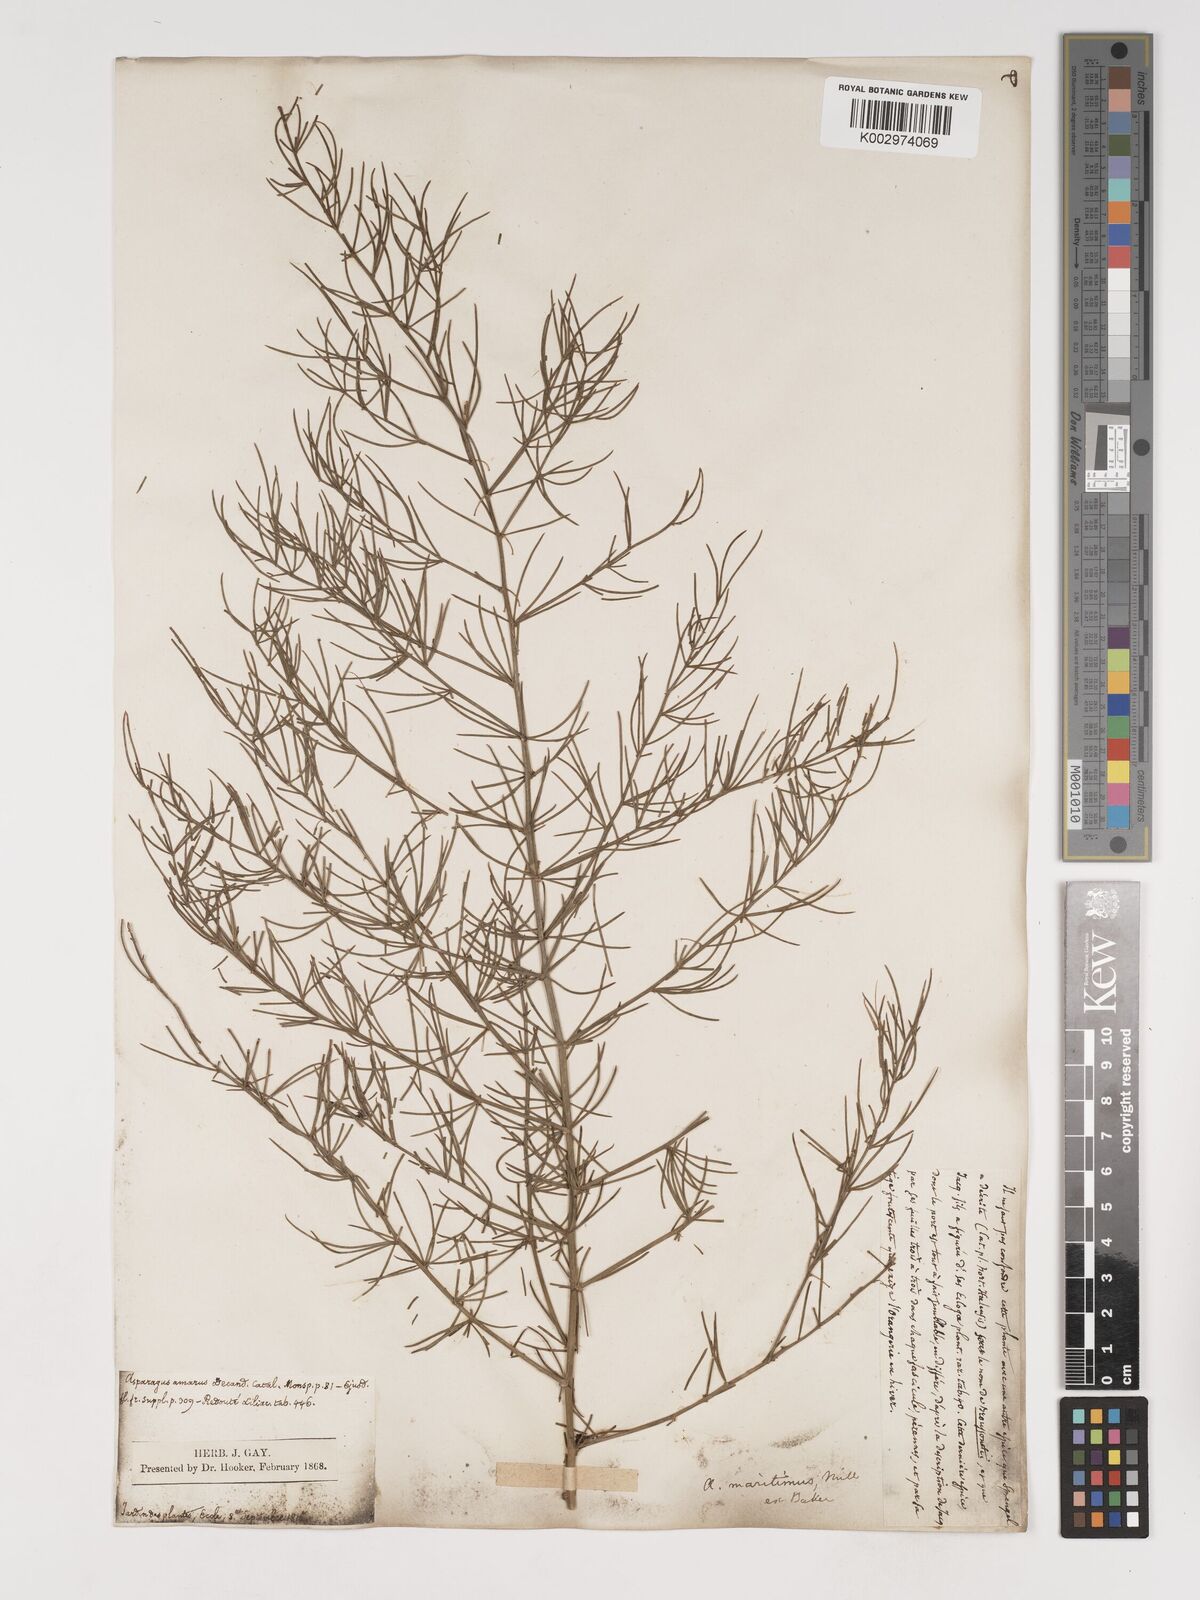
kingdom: Plantae
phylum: Tracheophyta
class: Liliopsida
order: Asparagales
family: Asparagaceae
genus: Asparagus
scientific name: Asparagus maritimus
